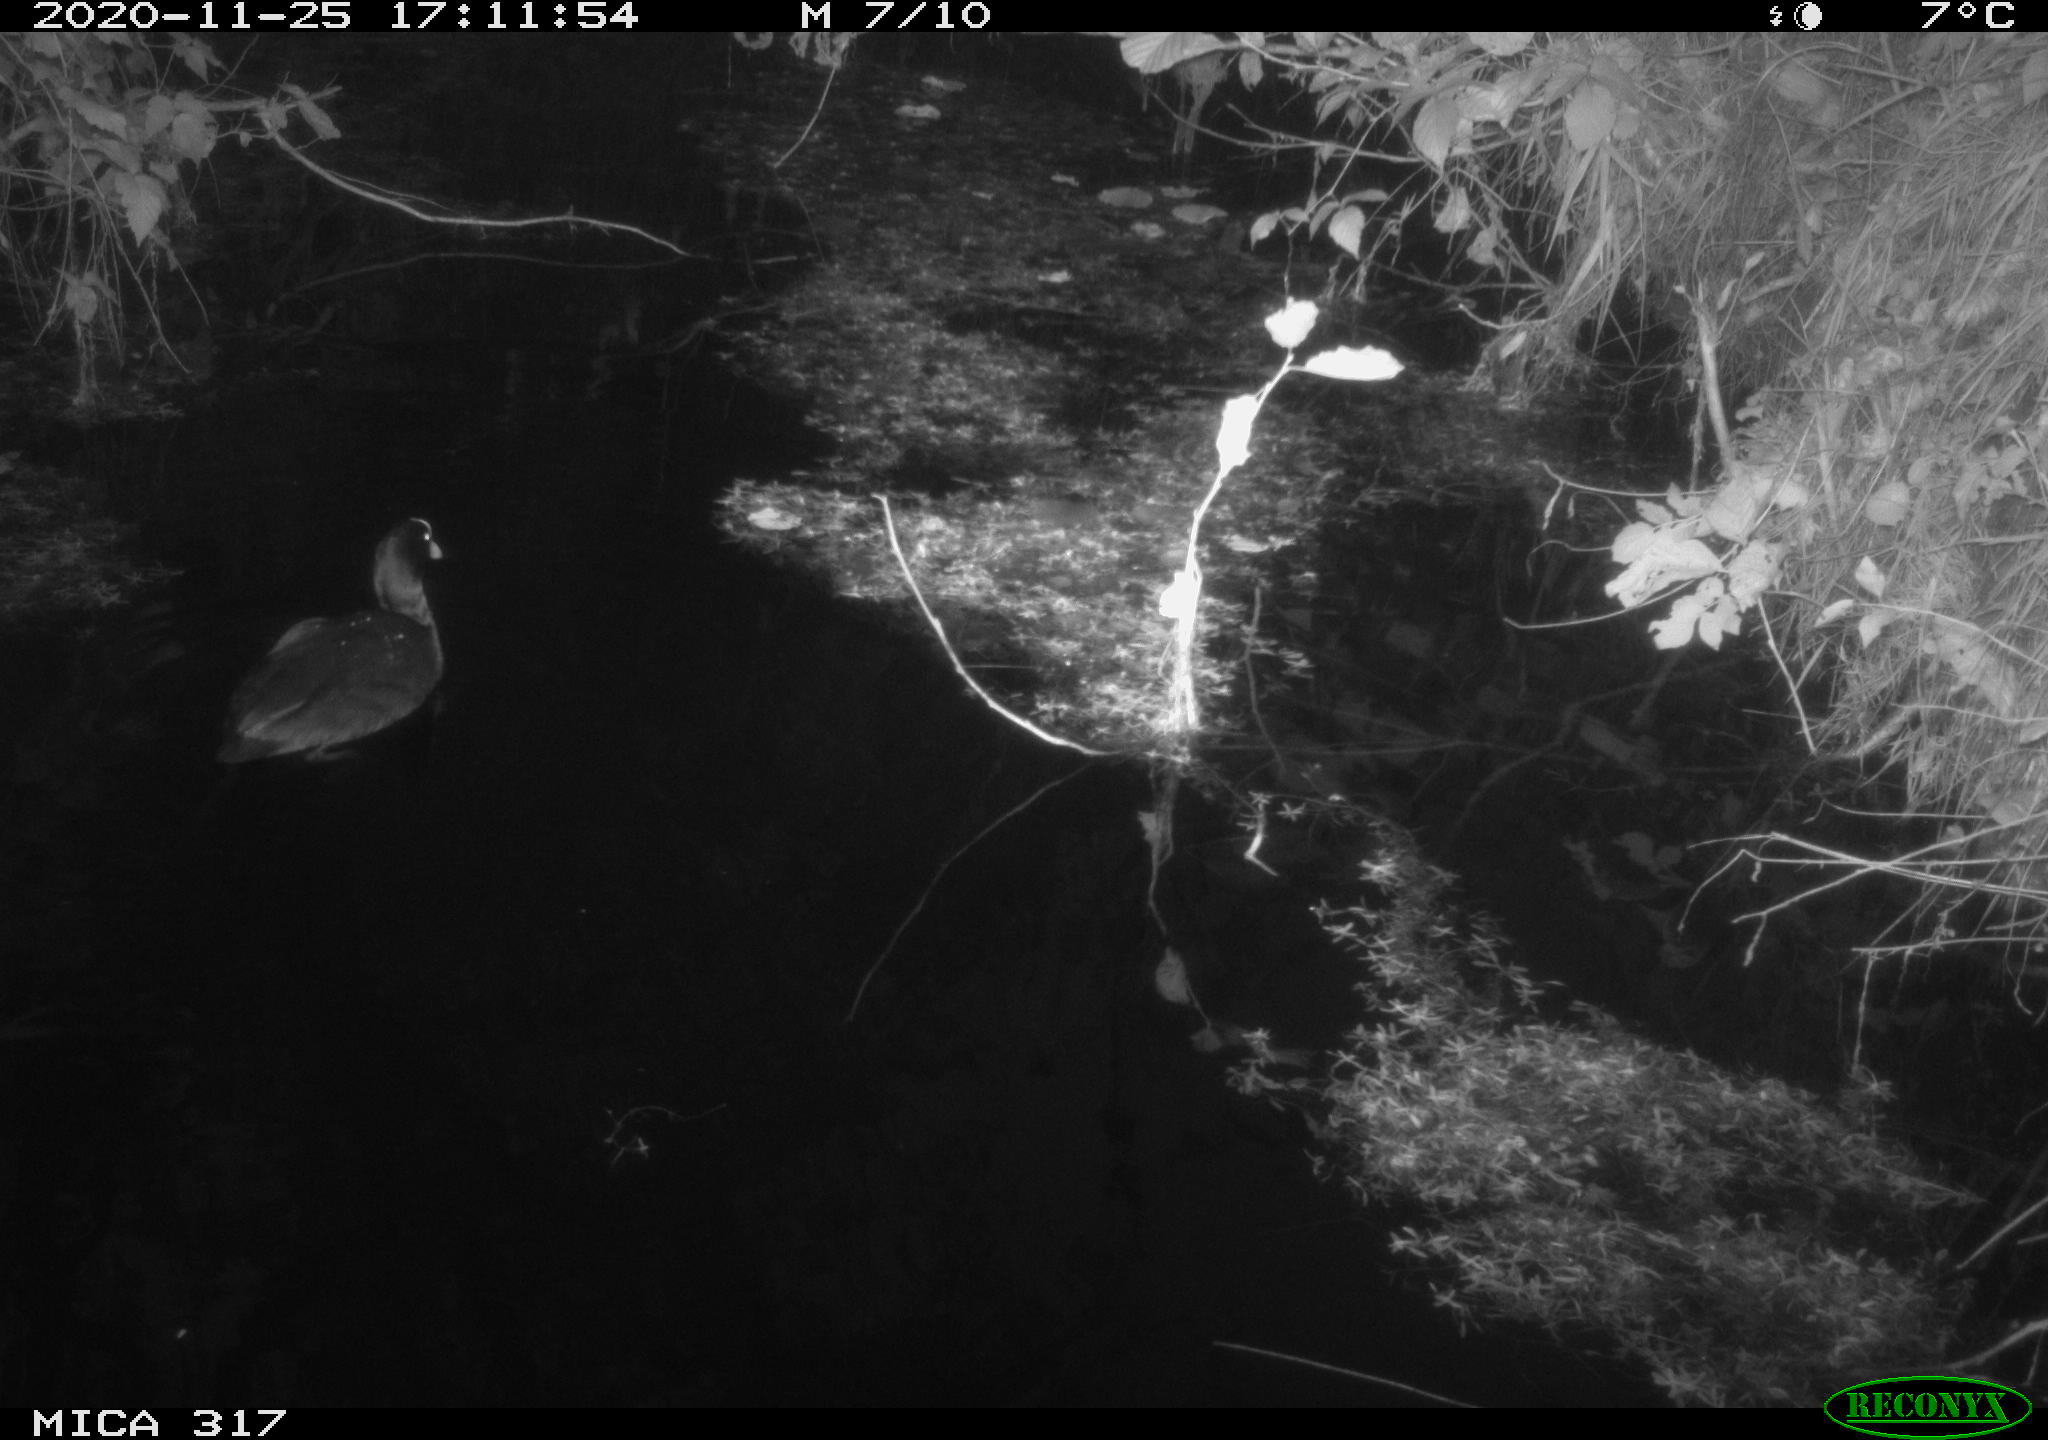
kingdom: Animalia
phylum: Chordata
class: Aves
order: Gruiformes
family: Rallidae
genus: Fulica
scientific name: Fulica atra
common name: Eurasian coot
